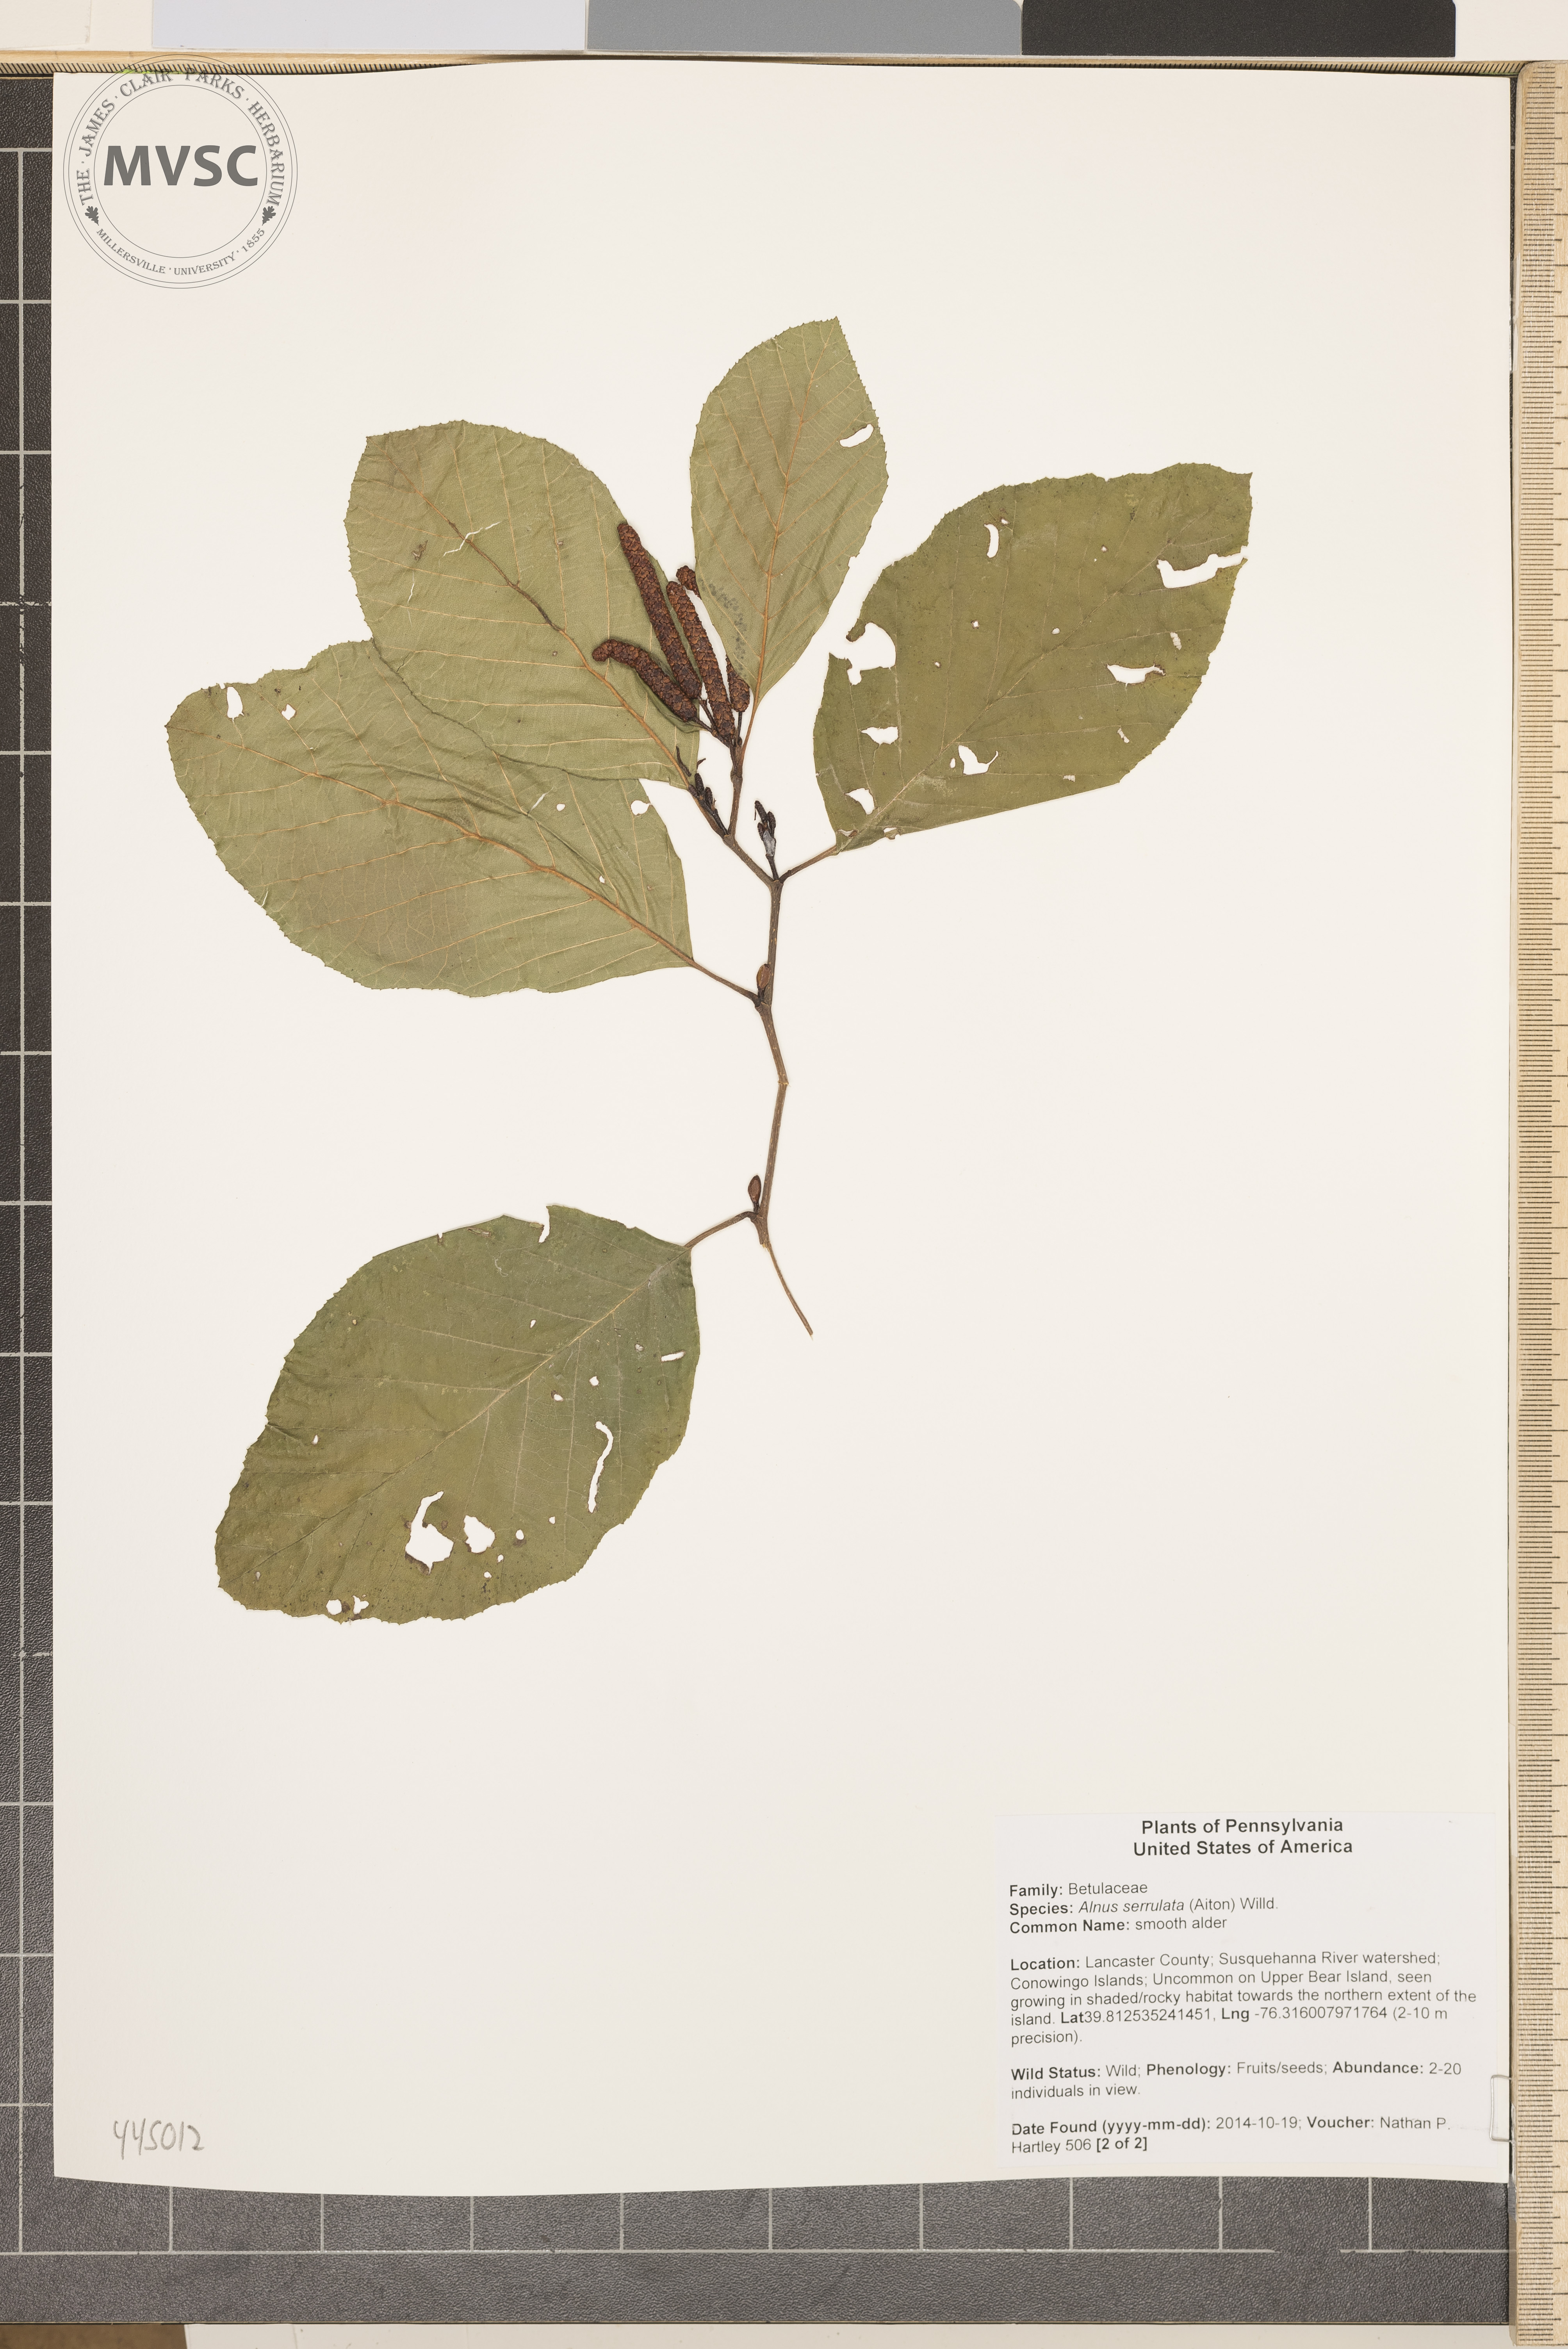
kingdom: Plantae
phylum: Tracheophyta
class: Magnoliopsida
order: Fagales
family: Betulaceae
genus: Alnus
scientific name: Alnus serrulata
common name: smooth alder
